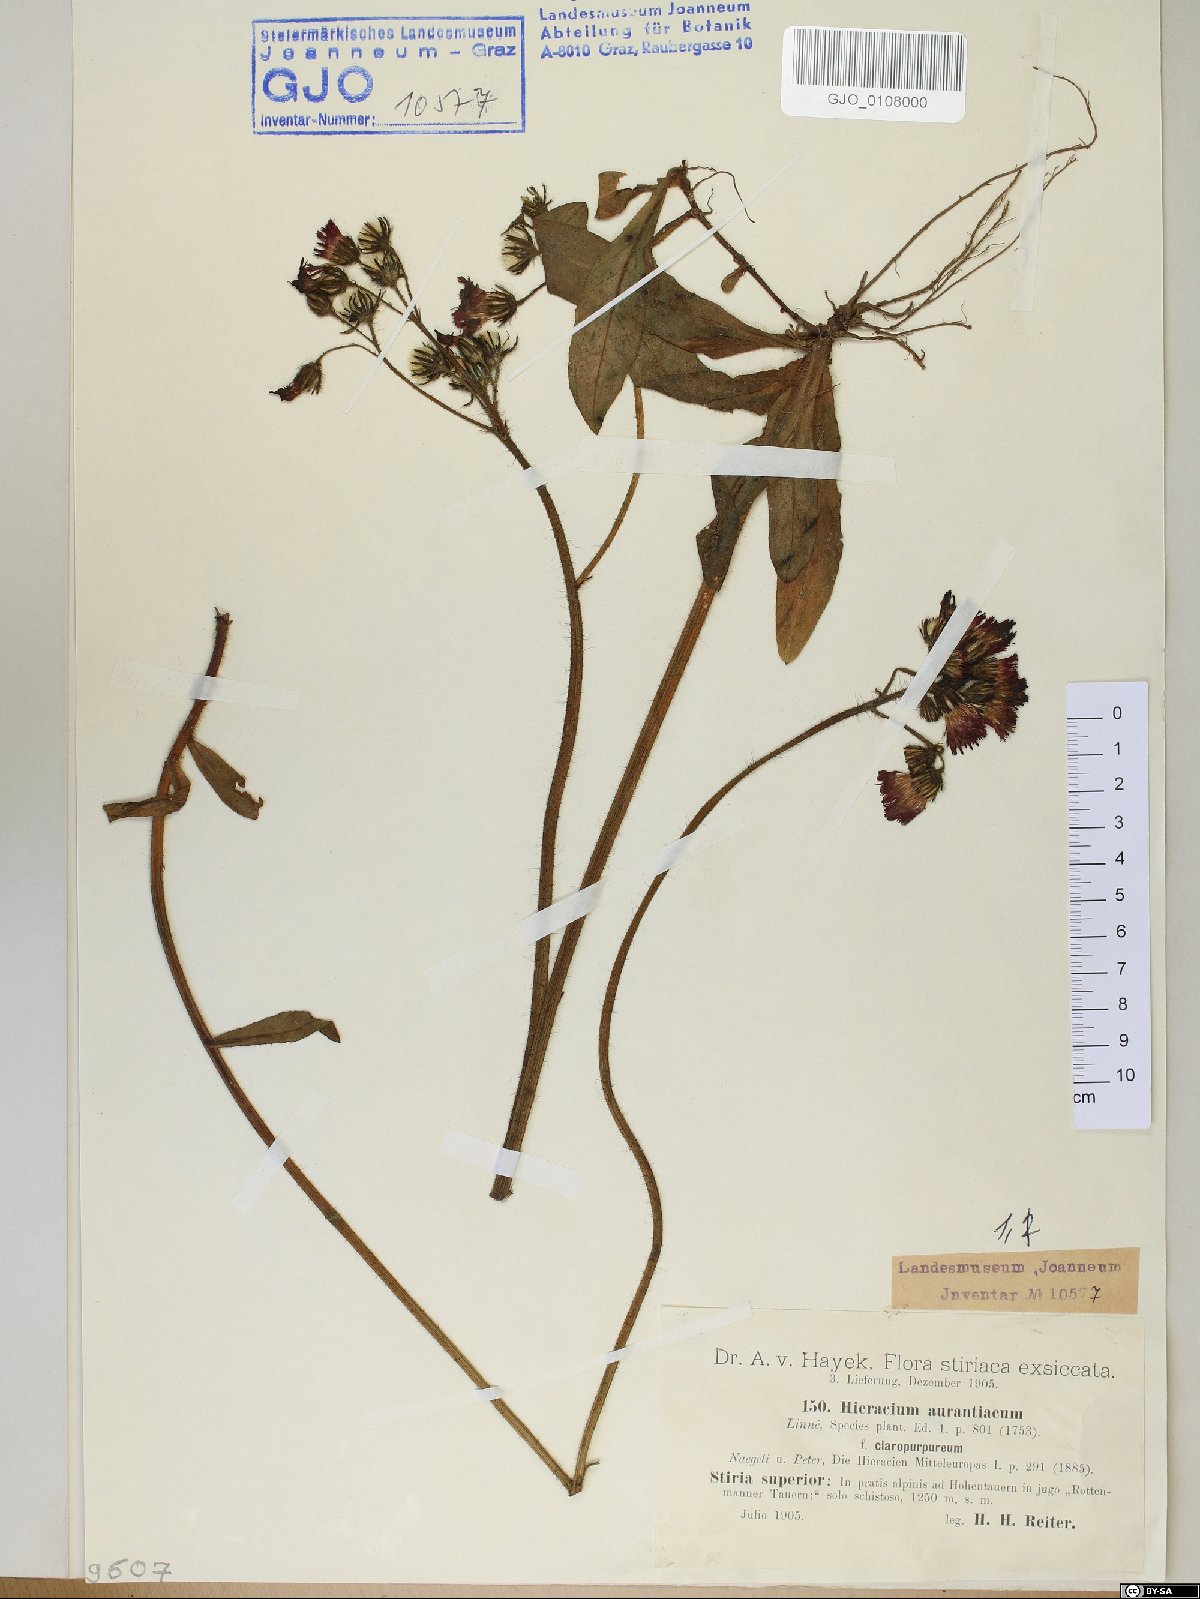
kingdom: Plantae
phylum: Tracheophyta
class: Magnoliopsida
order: Asterales
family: Asteraceae
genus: Pilosella
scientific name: Pilosella aurantiaca
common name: Fox-and-cubs
